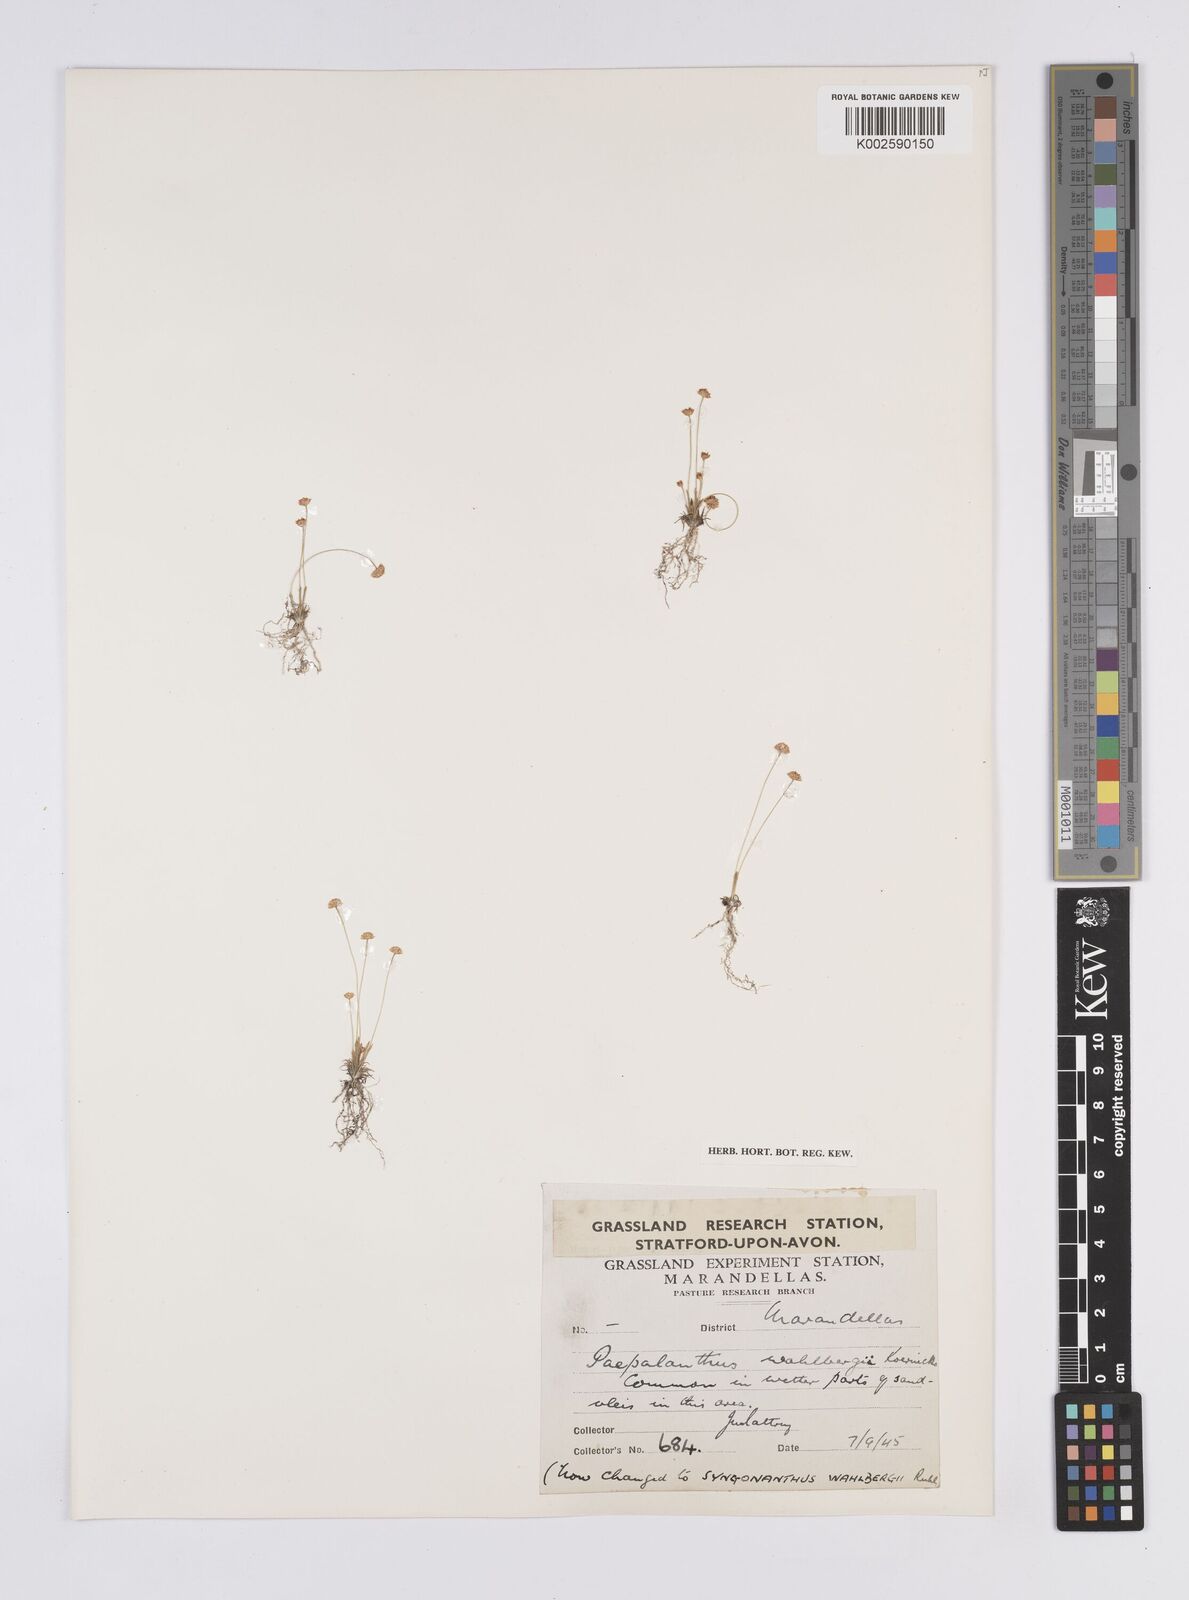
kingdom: Plantae
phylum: Tracheophyta
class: Liliopsida
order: Poales
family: Eriocaulaceae
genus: Syngonanthus
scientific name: Syngonanthus wahlbergii
